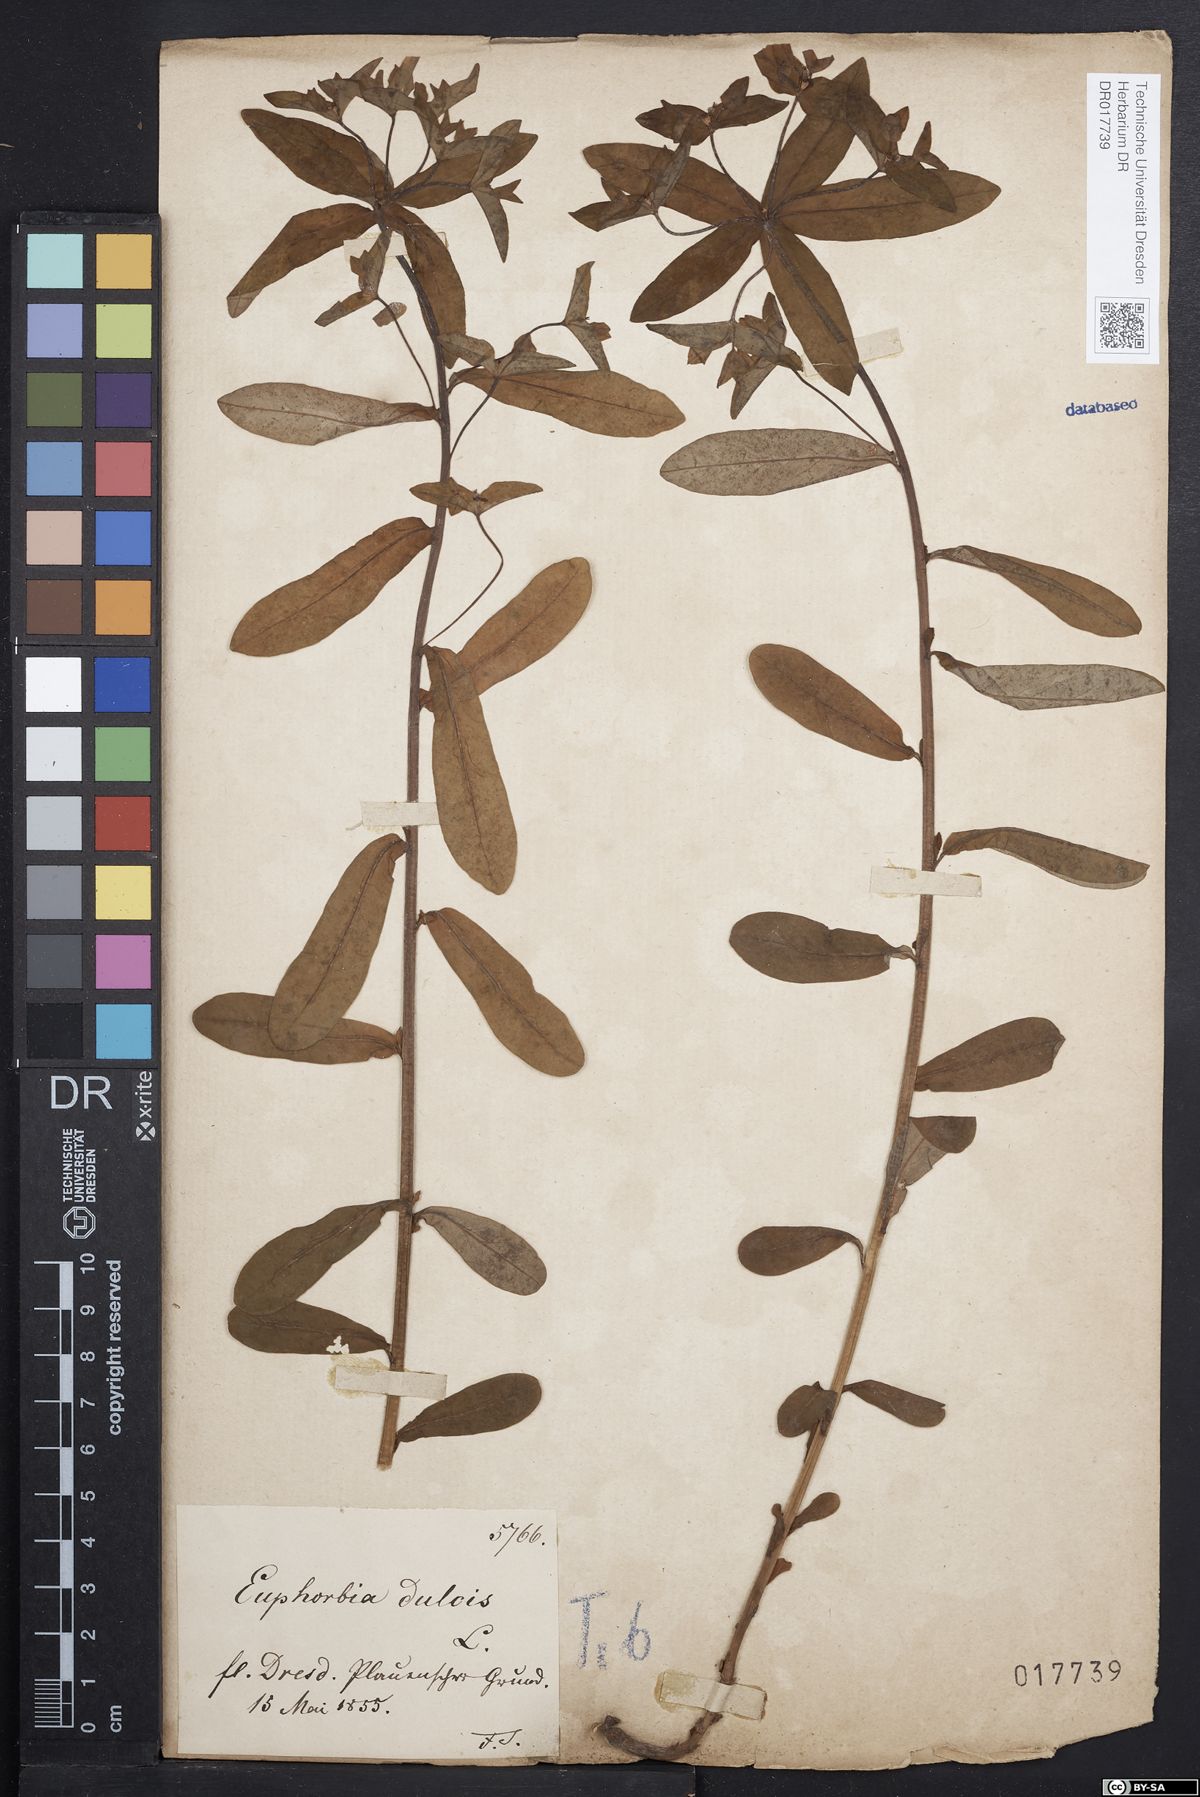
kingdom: Plantae
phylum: Tracheophyta
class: Magnoliopsida
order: Malpighiales
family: Euphorbiaceae
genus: Euphorbia
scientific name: Euphorbia dulcis
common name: Sweet spurge
